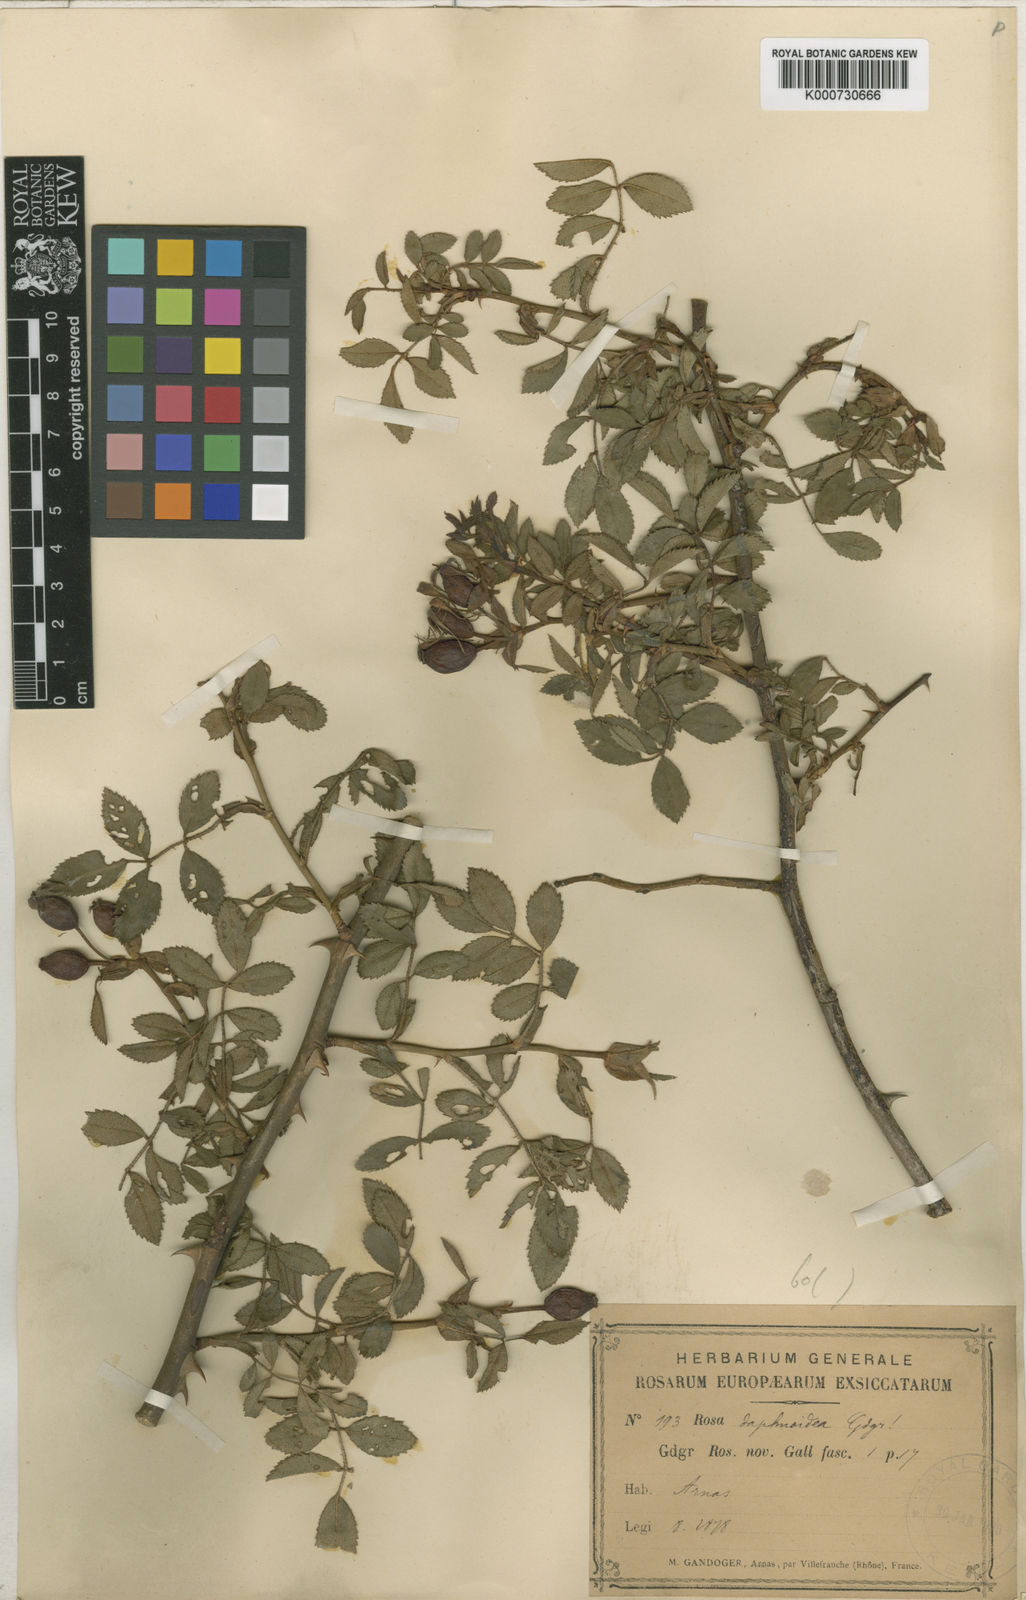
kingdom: Plantae
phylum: Tracheophyta
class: Magnoliopsida
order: Rosales
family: Rosaceae
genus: Rosa
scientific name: Rosa agrestis
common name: Fieldbriar
